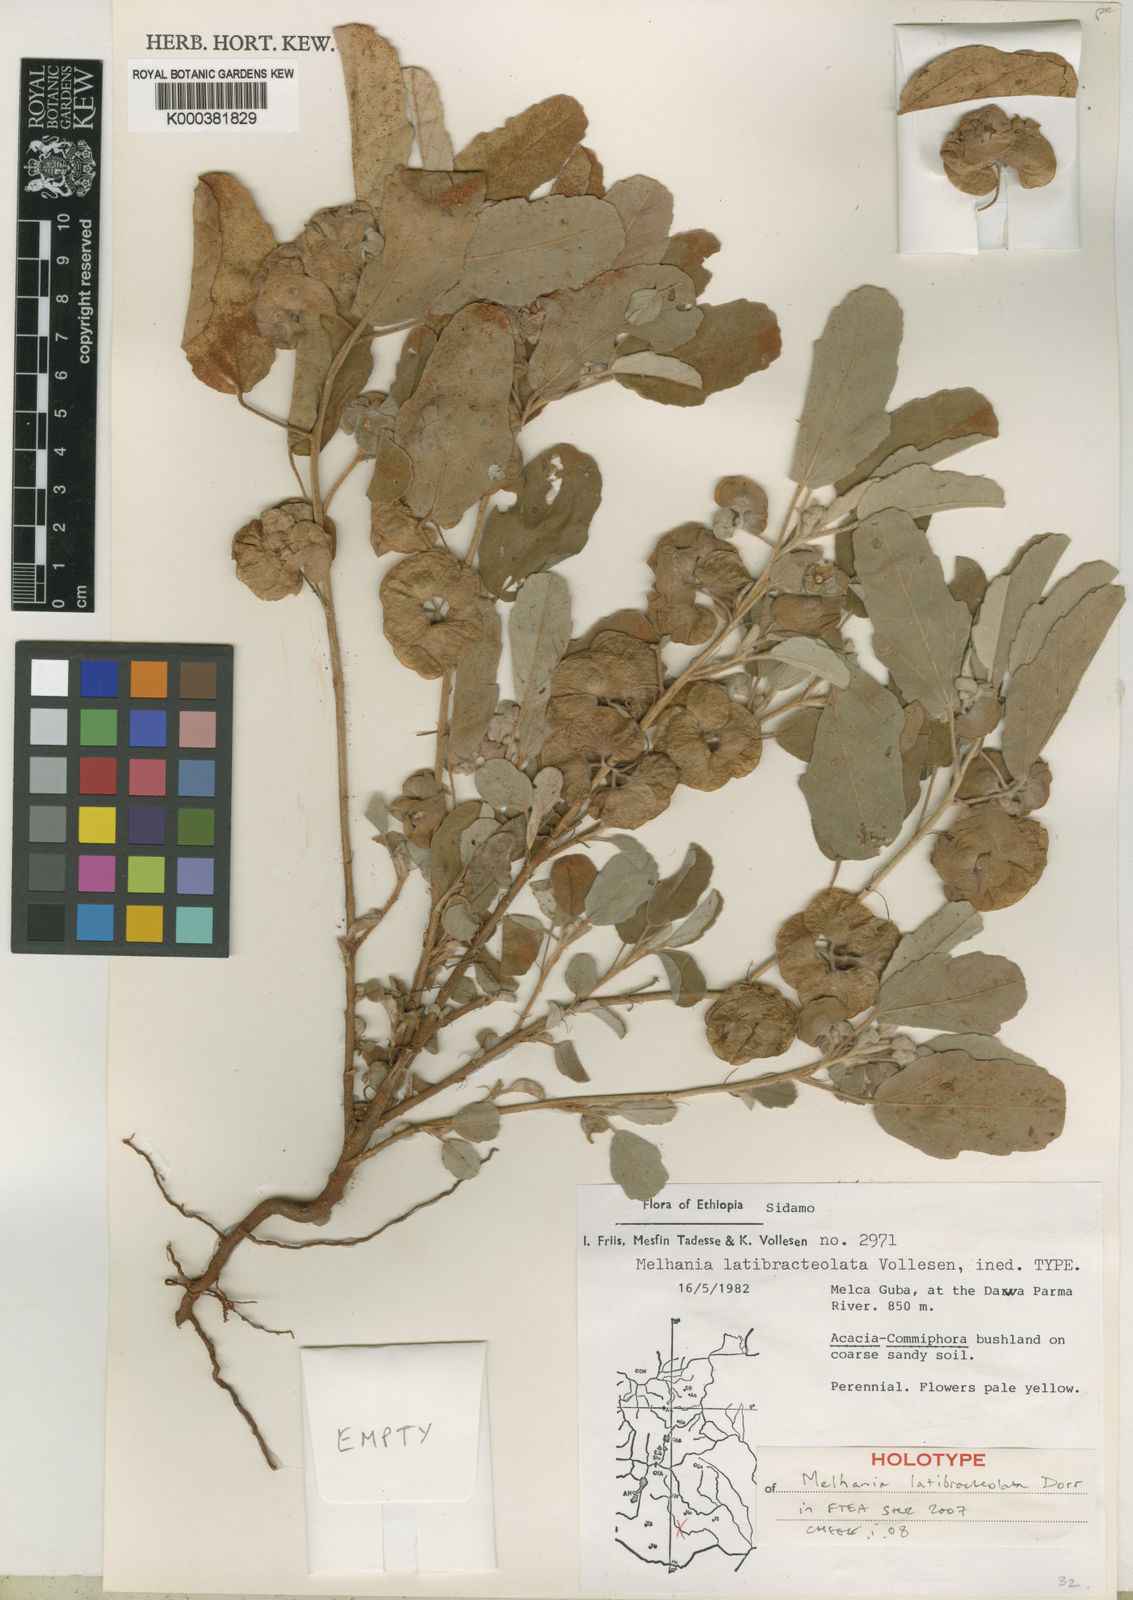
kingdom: Plantae
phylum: Tracheophyta
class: Magnoliopsida
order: Malvales
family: Malvaceae
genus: Melhania
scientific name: Melhania latibracteolata
